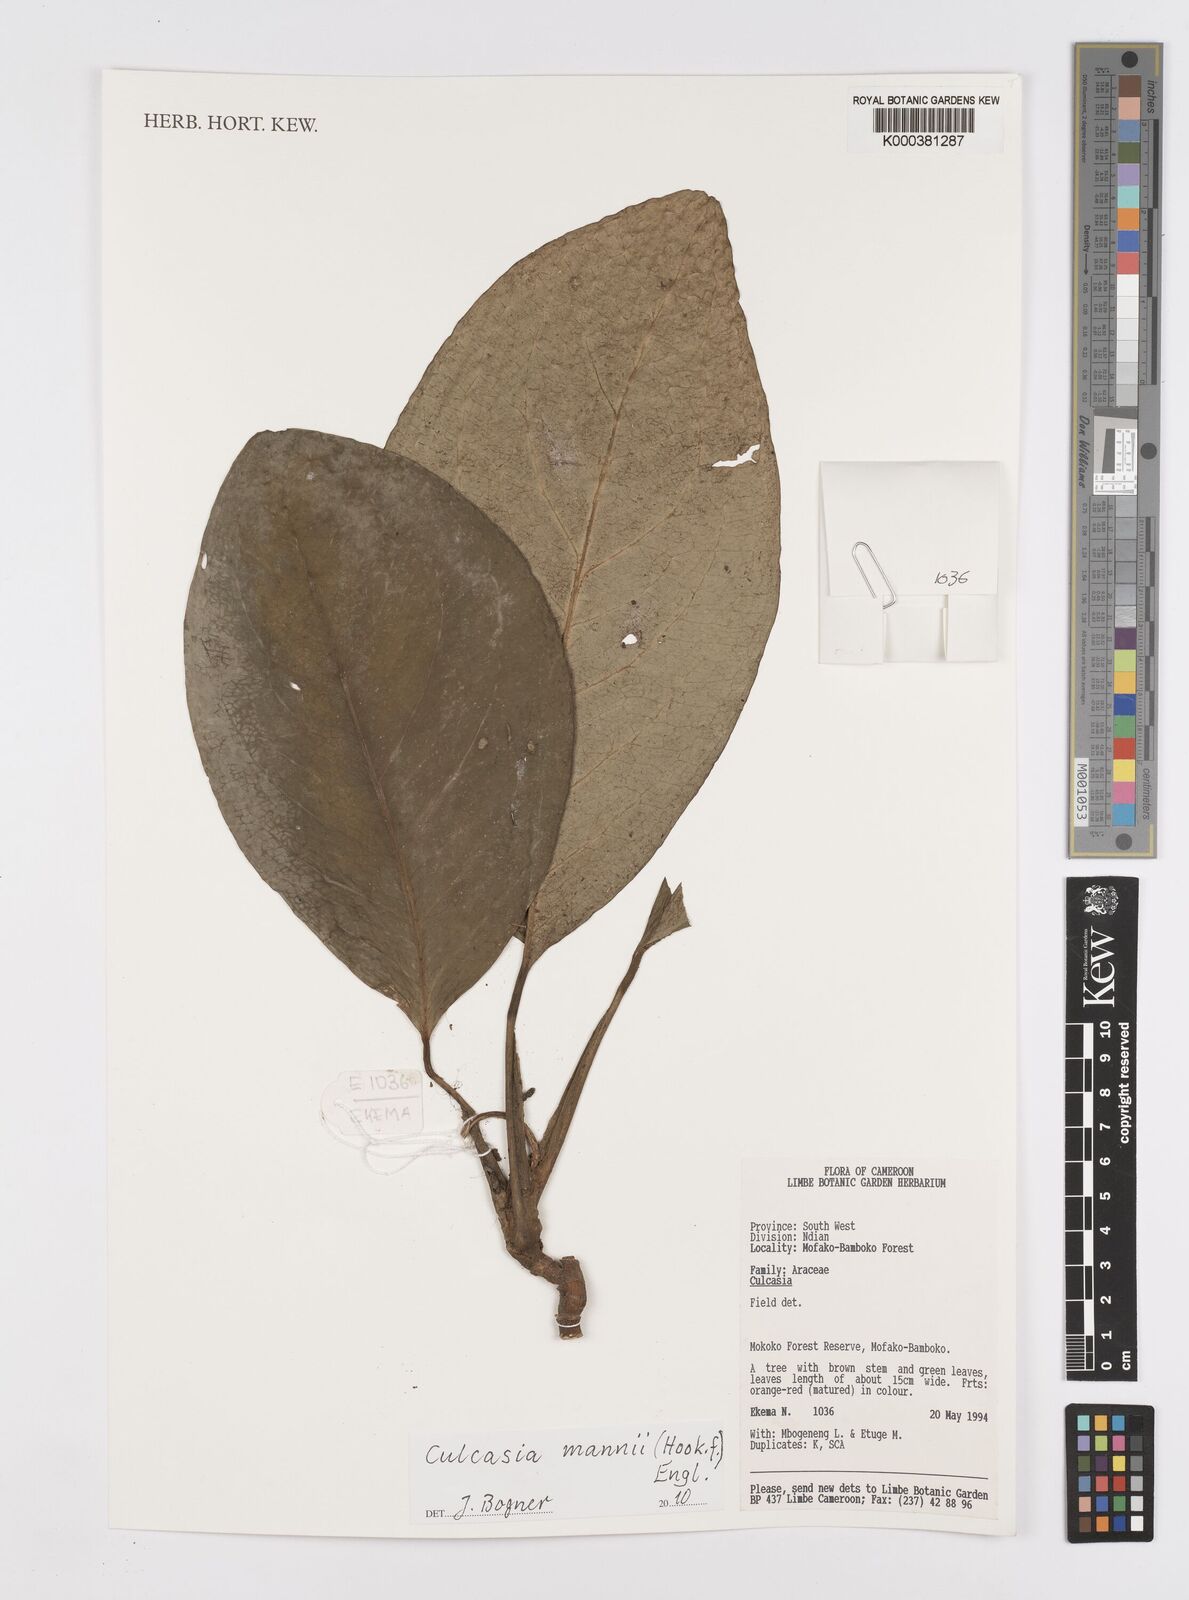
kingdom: Plantae
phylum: Tracheophyta
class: Liliopsida
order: Alismatales
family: Araceae
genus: Culcasia
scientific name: Culcasia mannii
